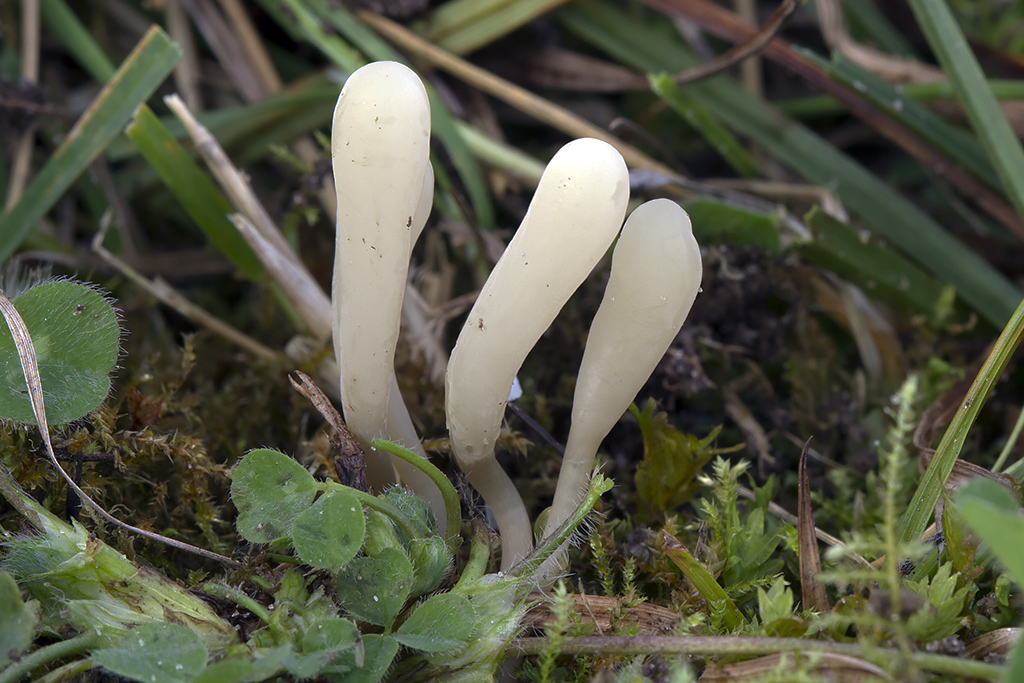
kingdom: Fungi
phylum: Basidiomycota
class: Agaricomycetes
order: Agaricales
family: Clavariaceae
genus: Clavaria
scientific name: Clavaria tenuipes
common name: isabellafarvet køllesvamp
